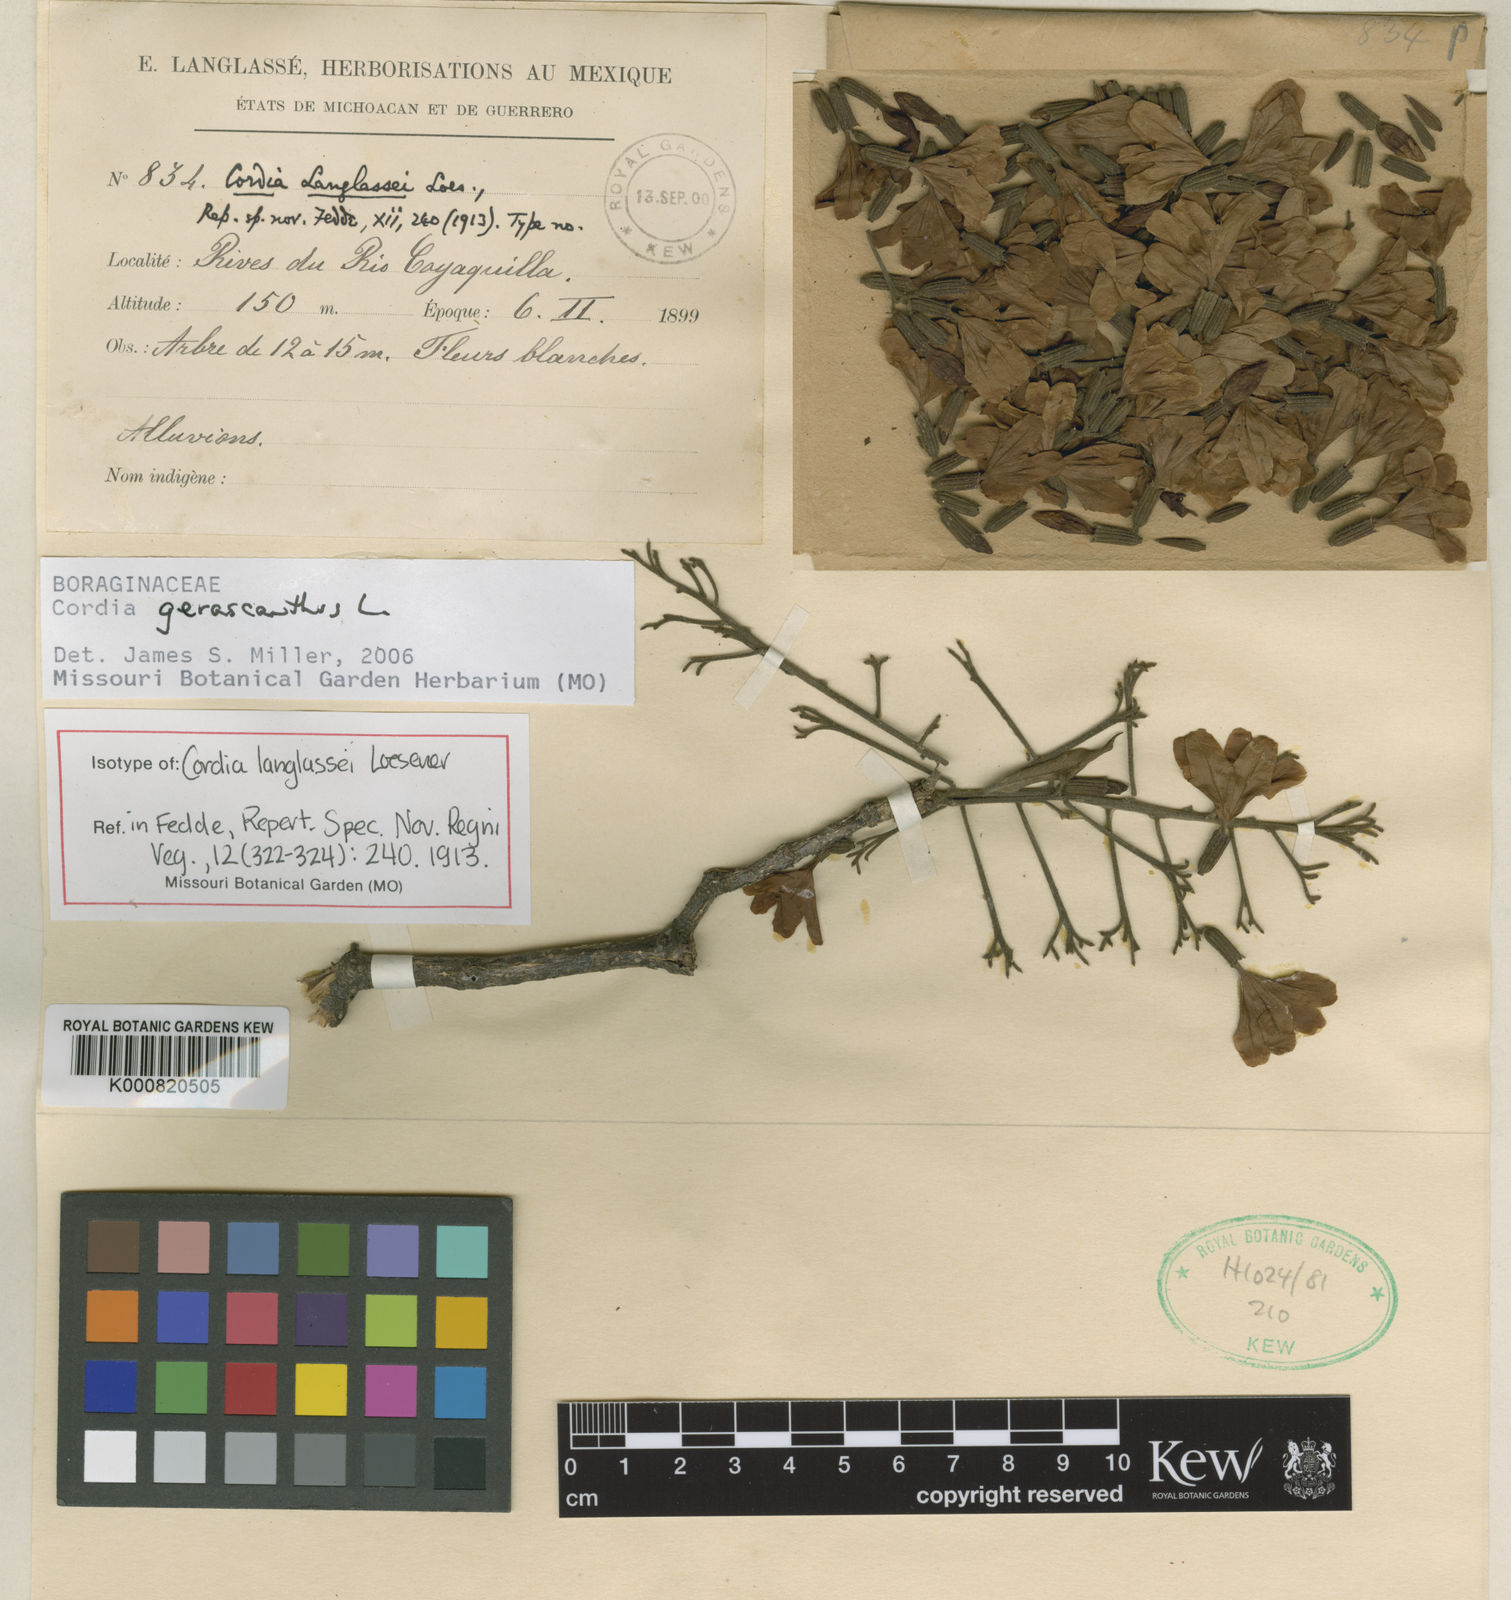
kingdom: Plantae
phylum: Tracheophyta
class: Magnoliopsida
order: Boraginales
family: Cordiaceae
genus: Cordia
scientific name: Cordia gerascanthus
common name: Baria
